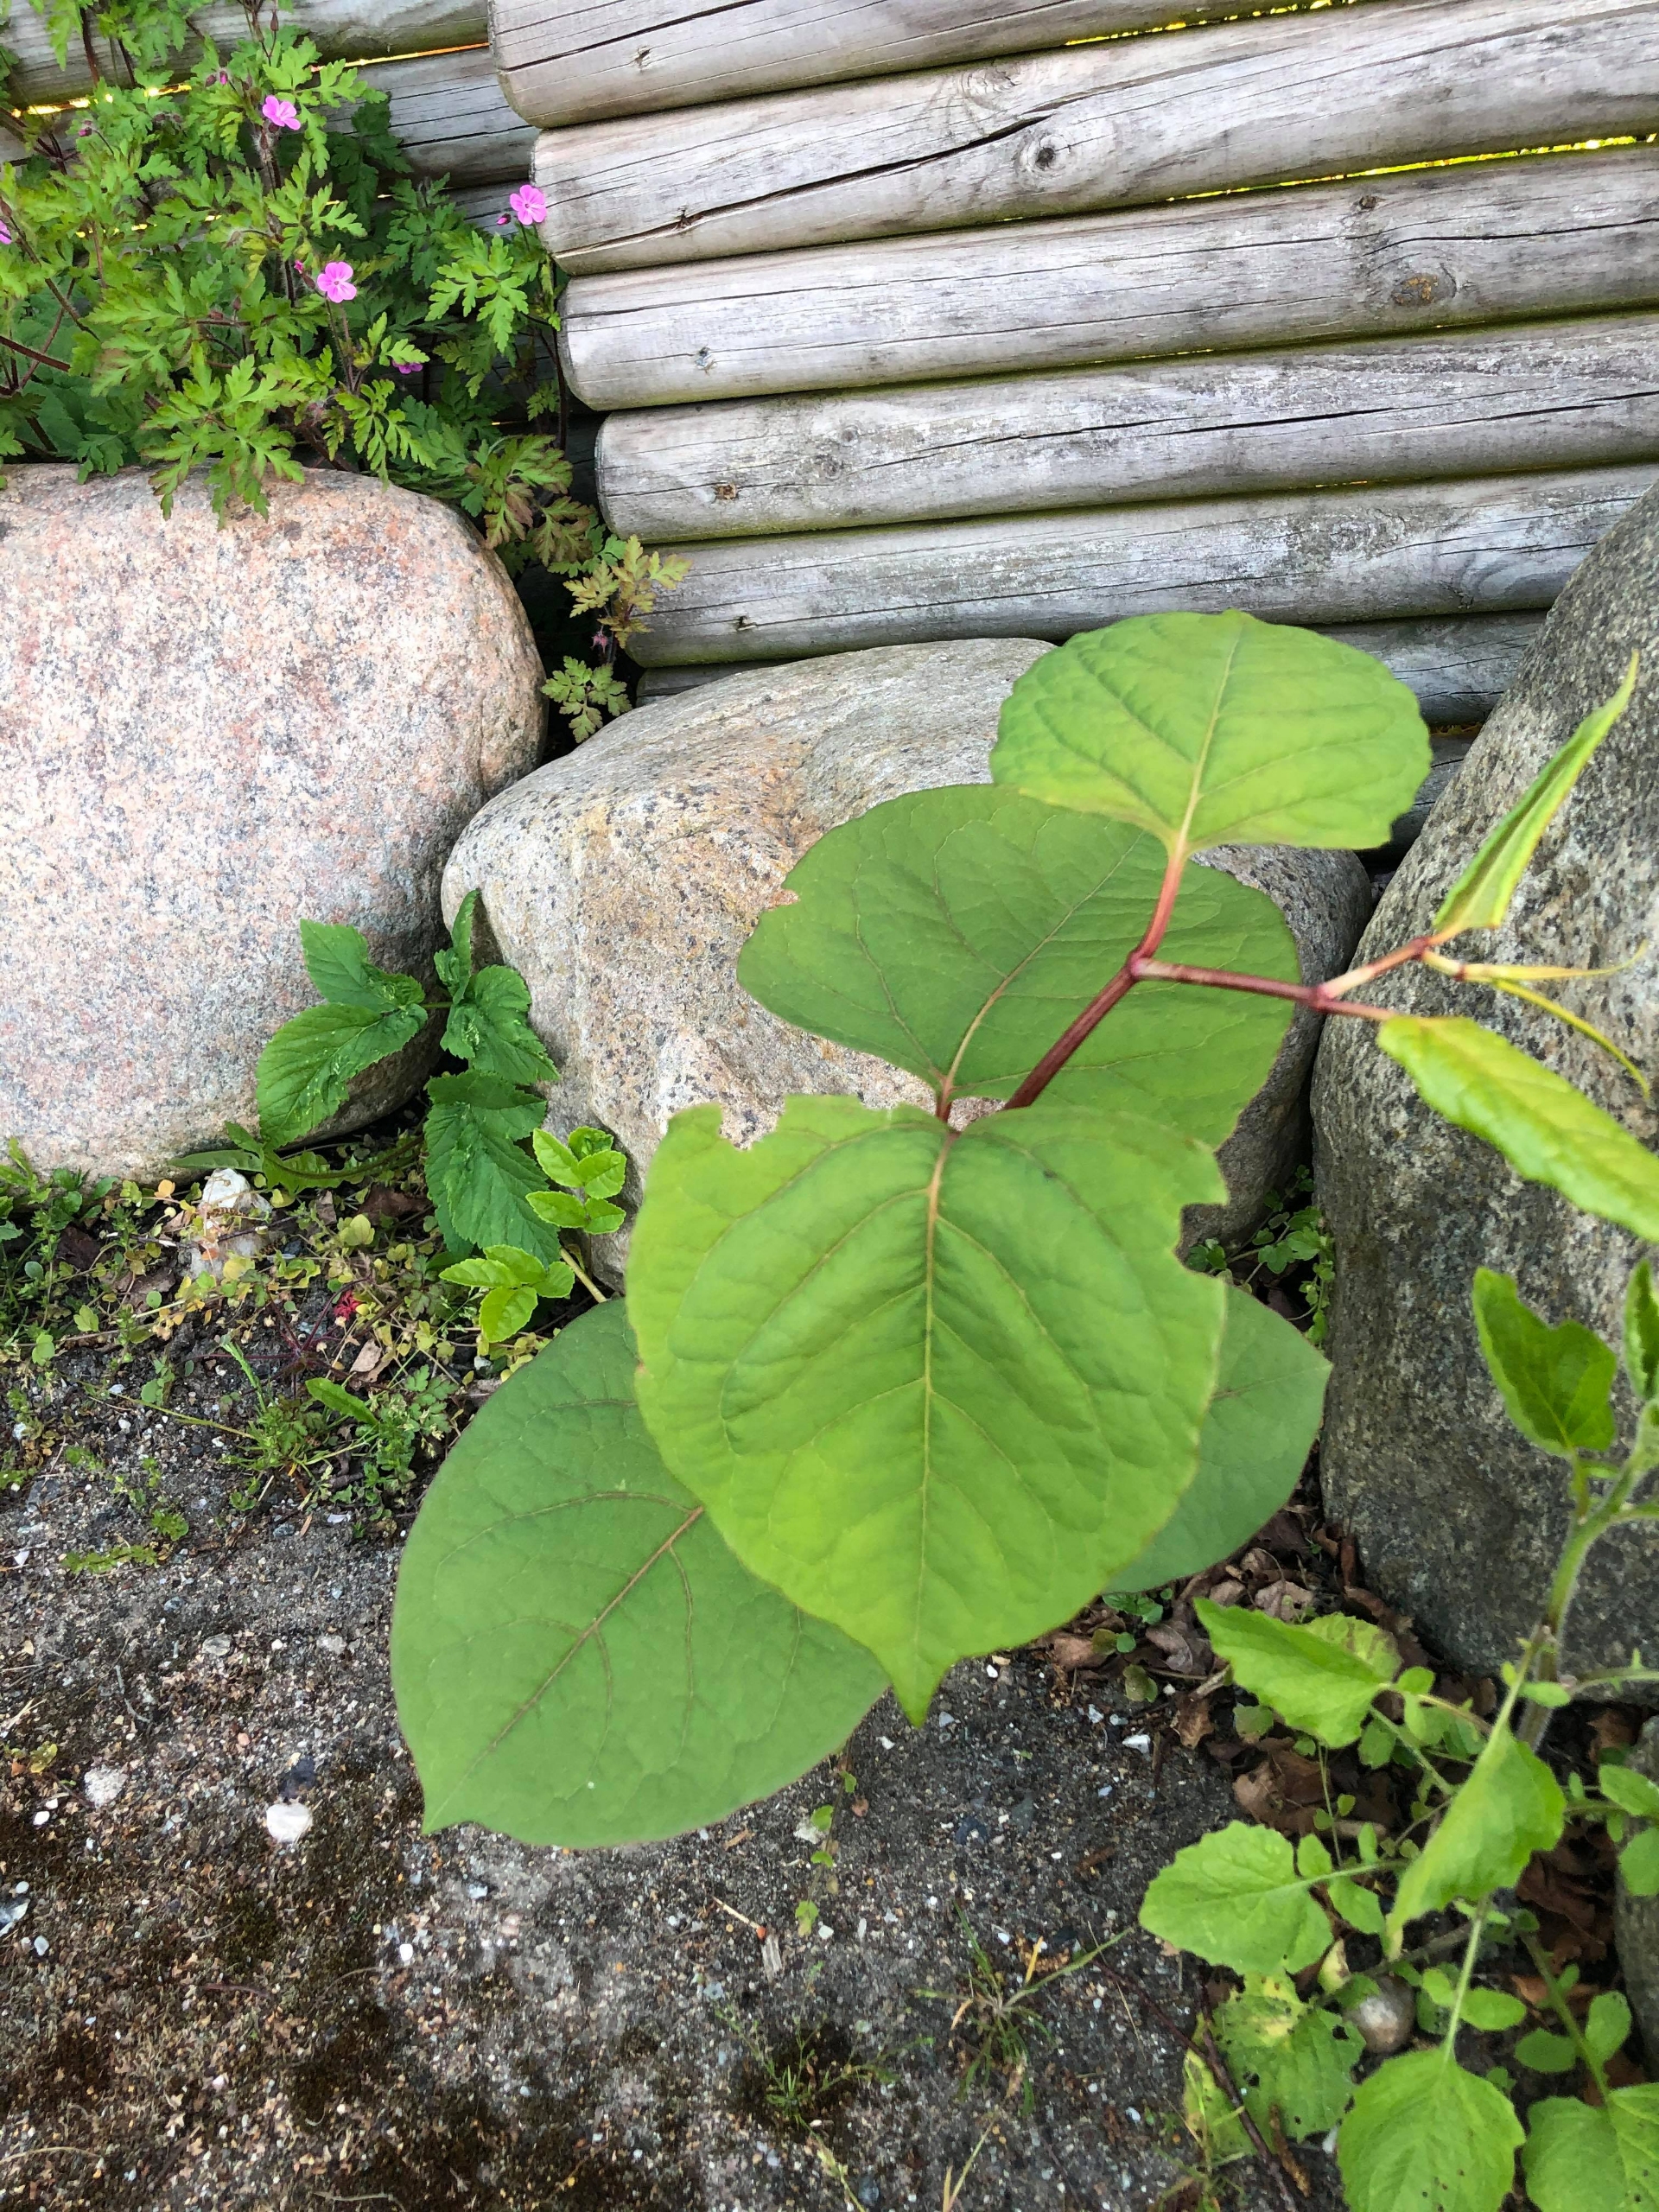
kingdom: Plantae
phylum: Tracheophyta
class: Magnoliopsida
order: Caryophyllales
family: Polygonaceae
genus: Reynoutria
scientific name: Reynoutria japonica
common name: Japan-pileurt
